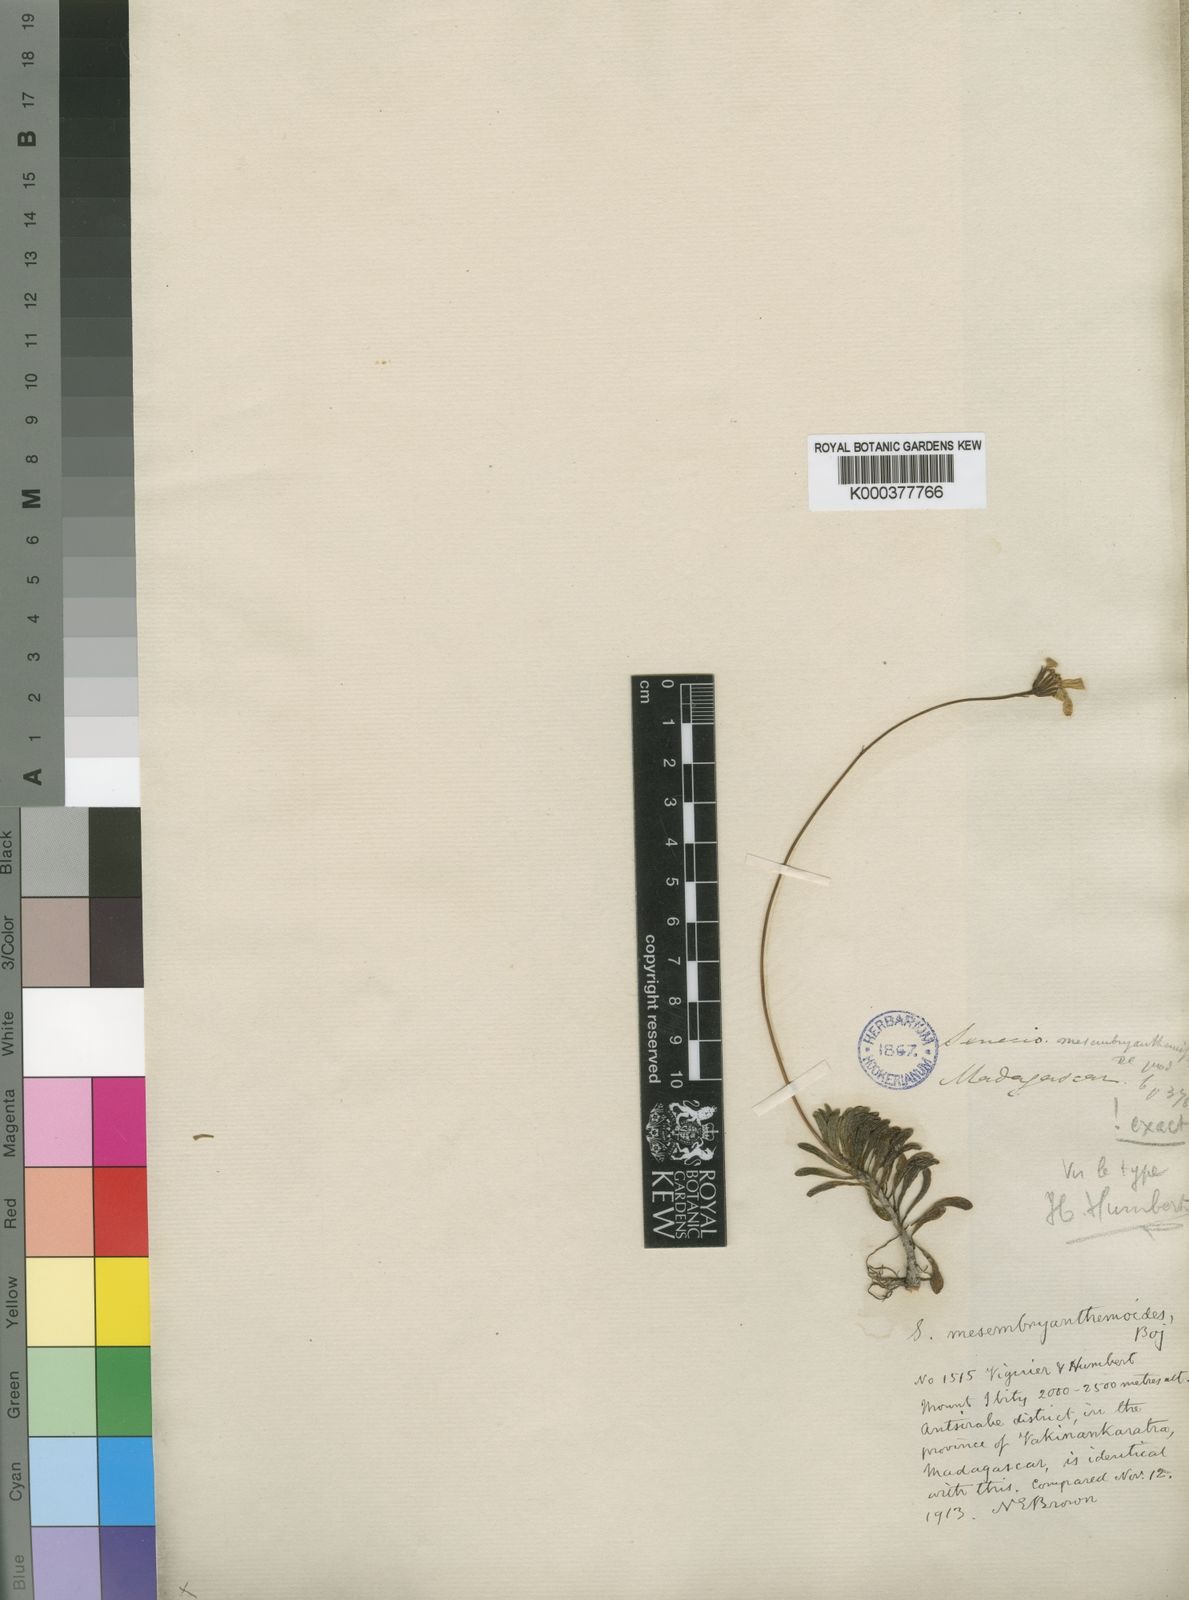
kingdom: Plantae
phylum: Tracheophyta
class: Magnoliopsida
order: Asterales
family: Asteraceae
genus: Senecio
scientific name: Senecio
